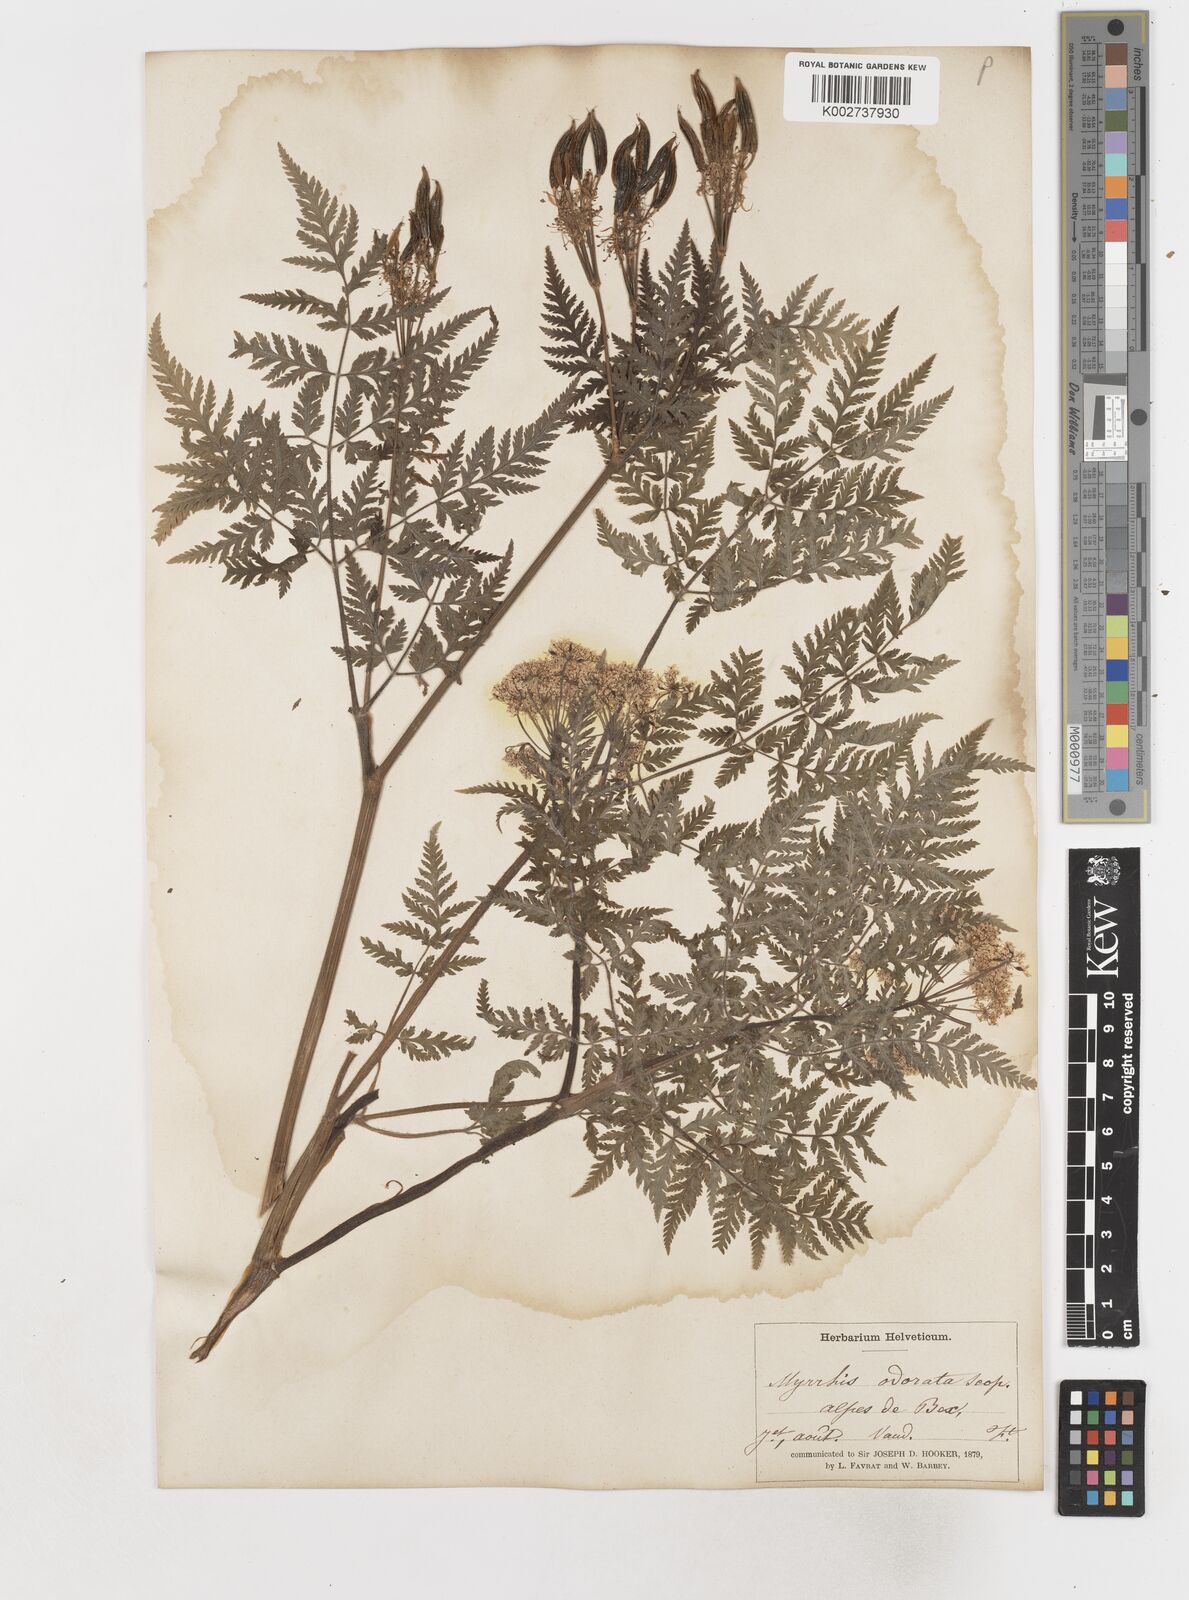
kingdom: Plantae
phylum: Tracheophyta
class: Magnoliopsida
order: Apiales
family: Apiaceae
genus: Myrrhis
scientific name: Myrrhis odorata
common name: Sweet cicely
